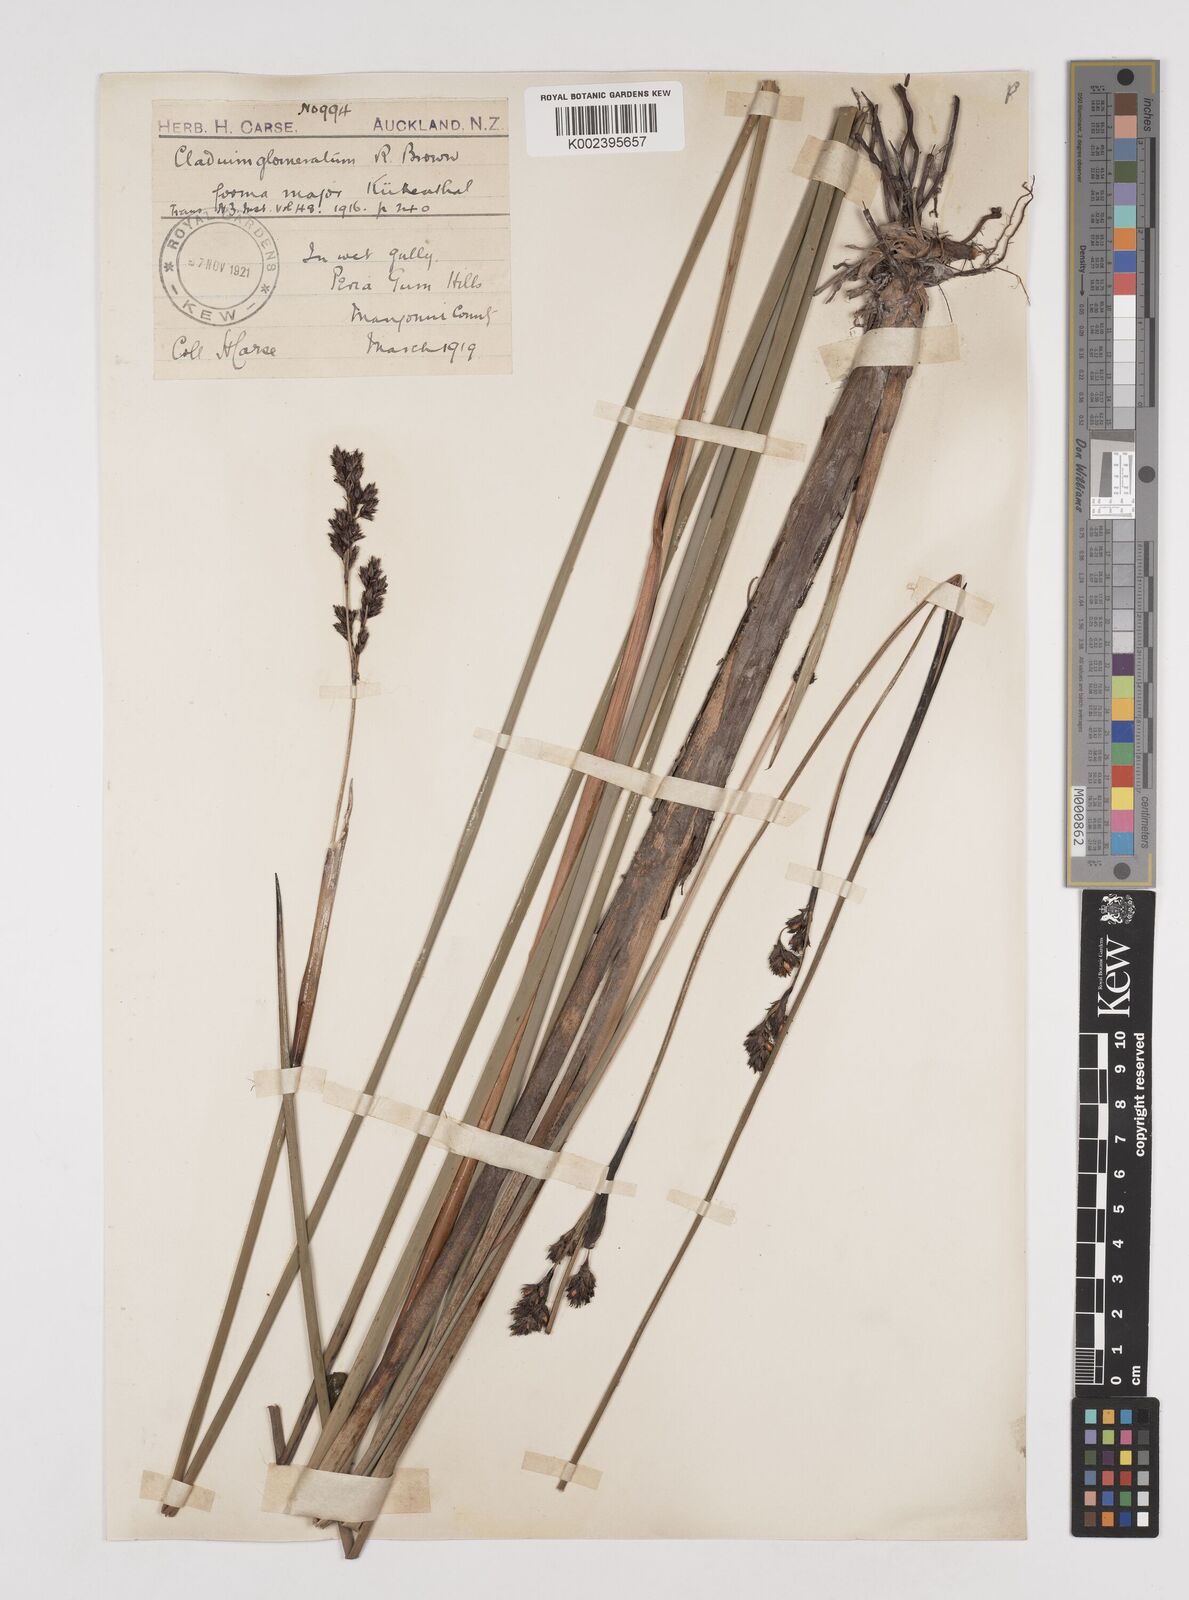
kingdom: Plantae
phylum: Tracheophyta
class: Liliopsida
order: Poales
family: Cyperaceae
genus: Machaerina
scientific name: Machaerina rubiginosa
